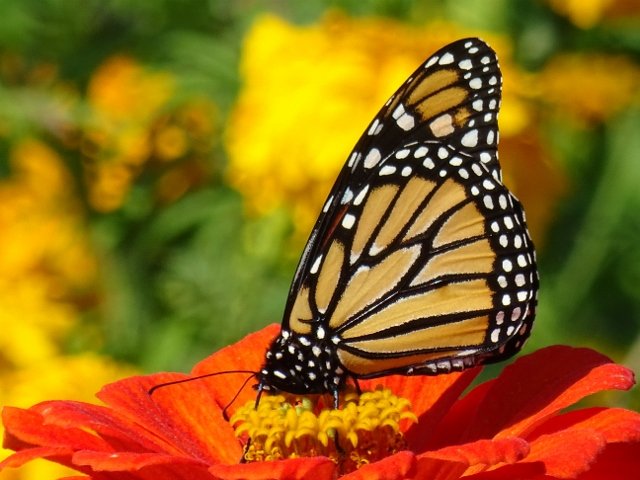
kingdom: Animalia
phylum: Arthropoda
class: Insecta
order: Lepidoptera
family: Nymphalidae
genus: Danaus
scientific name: Danaus plexippus
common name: Monarch
